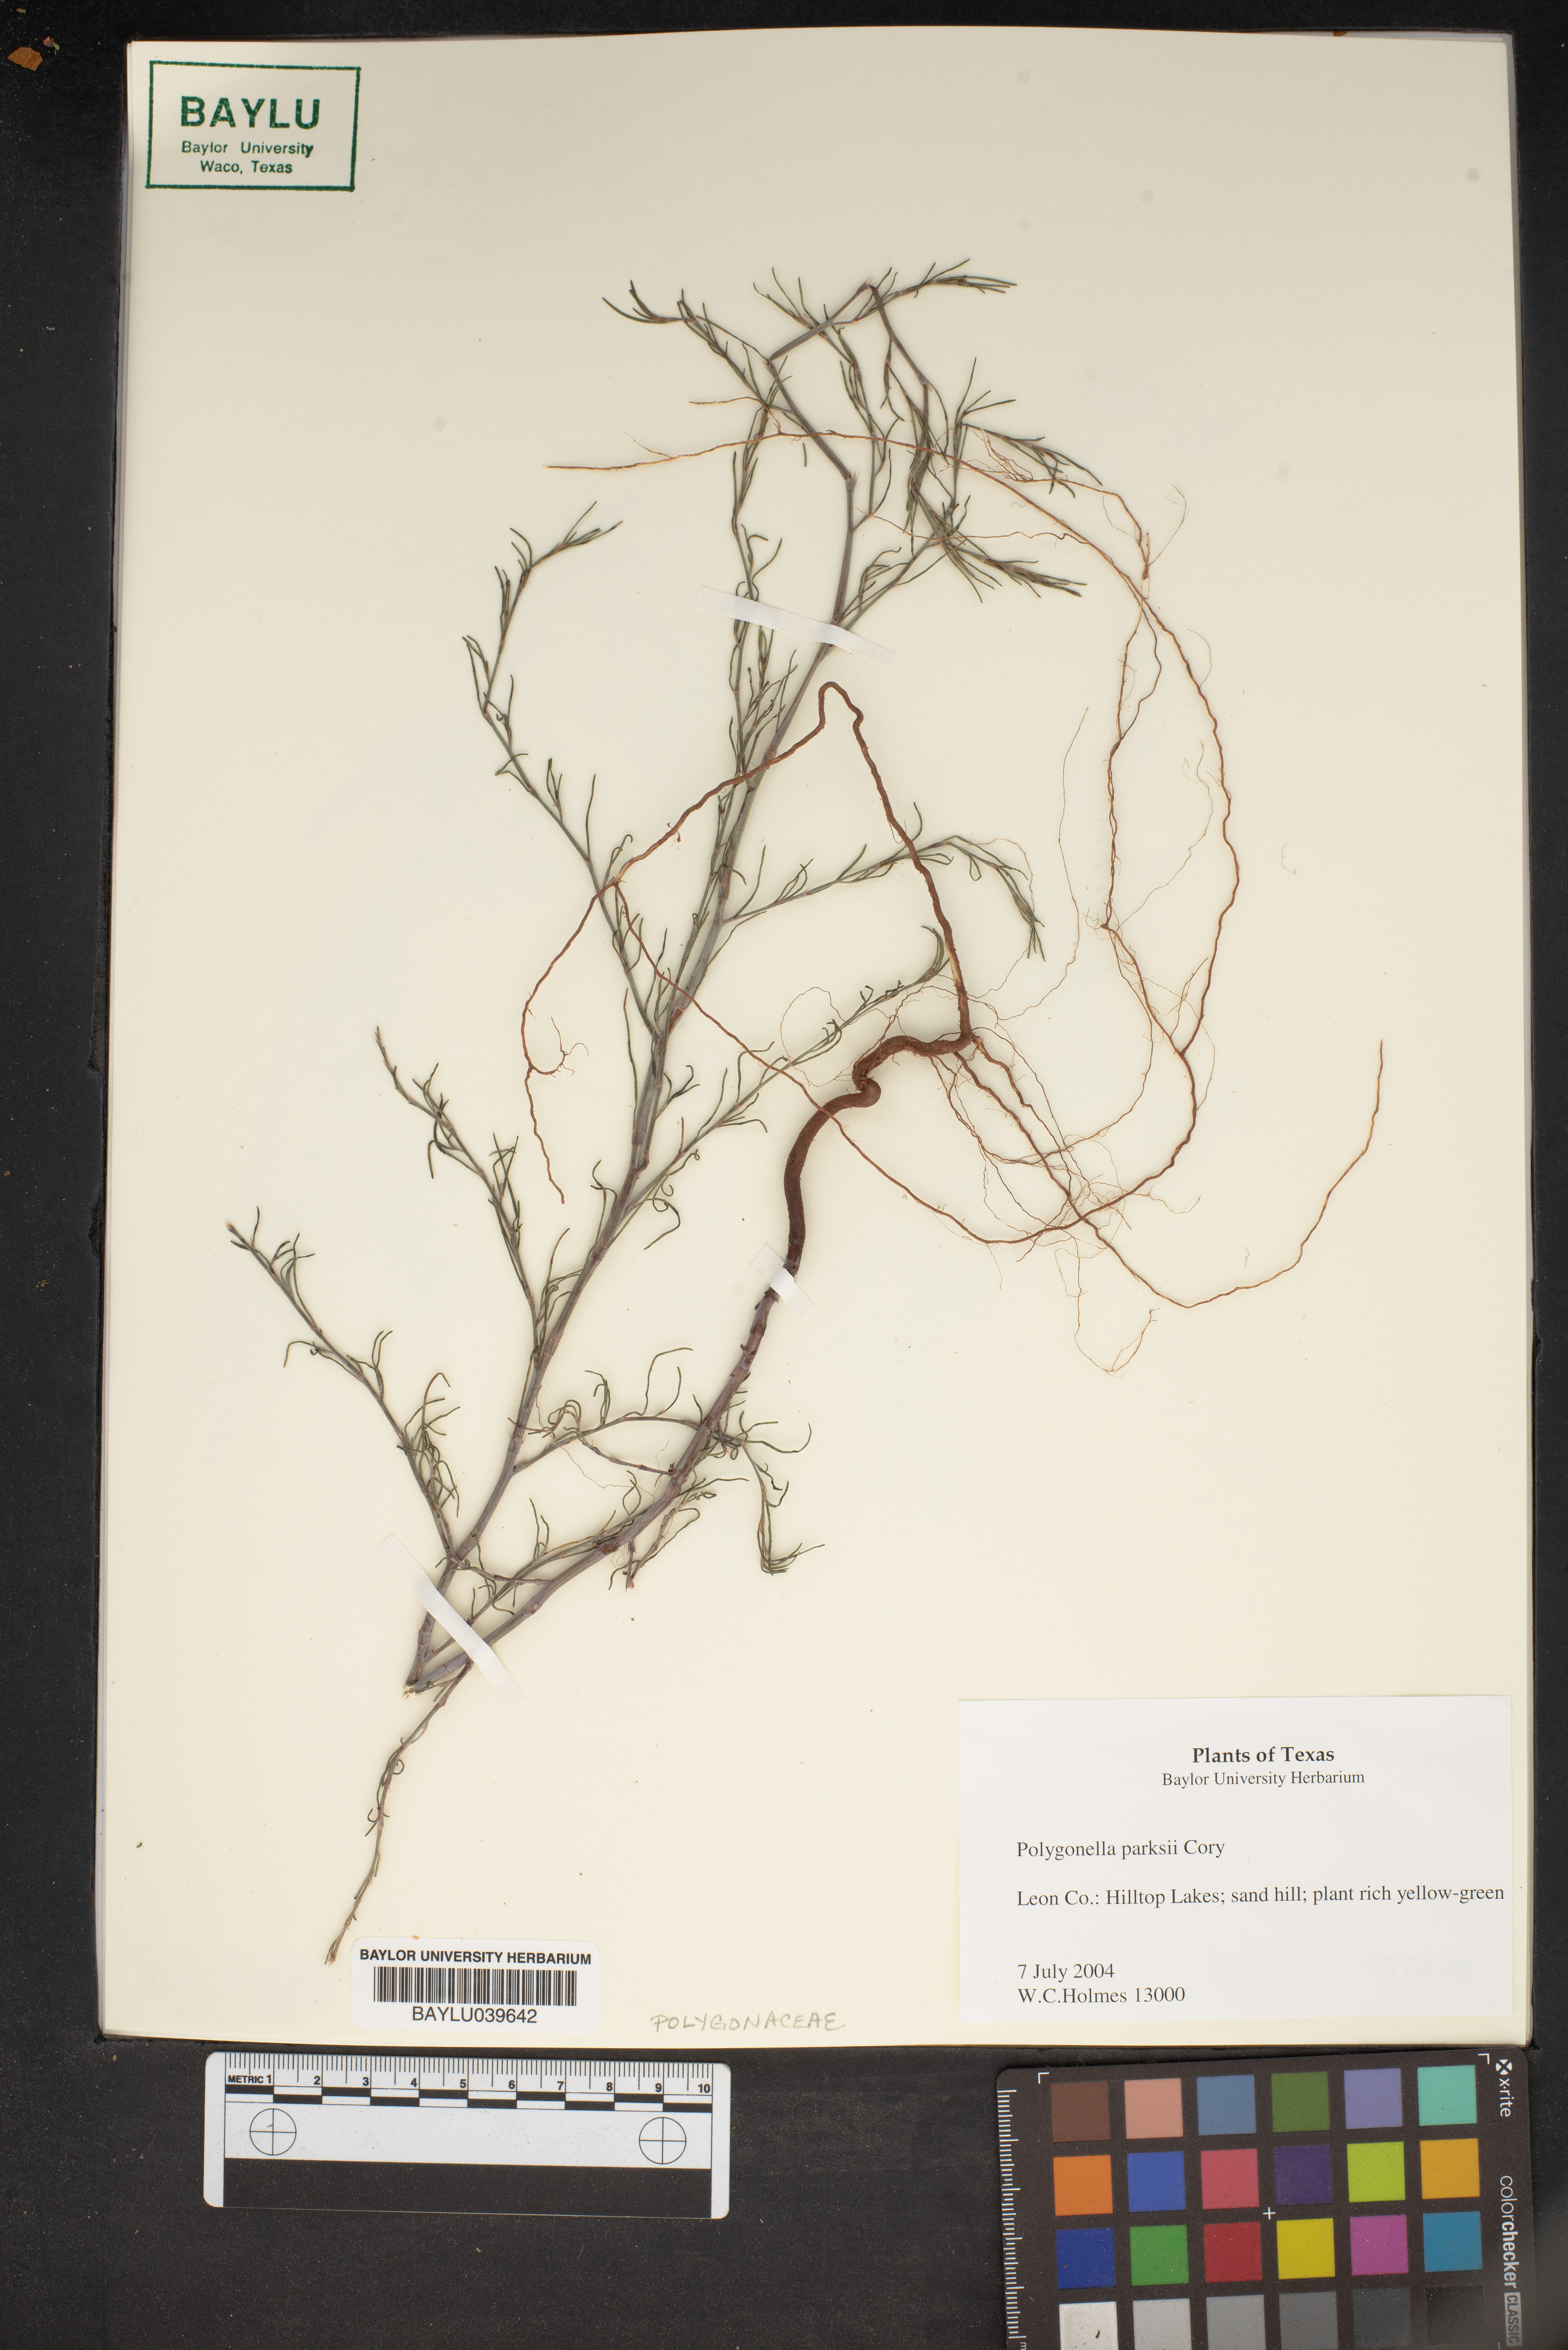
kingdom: Plantae
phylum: Tracheophyta
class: Magnoliopsida
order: Caryophyllales
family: Polygonaceae
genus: Polygonella
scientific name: Polygonella parksii
